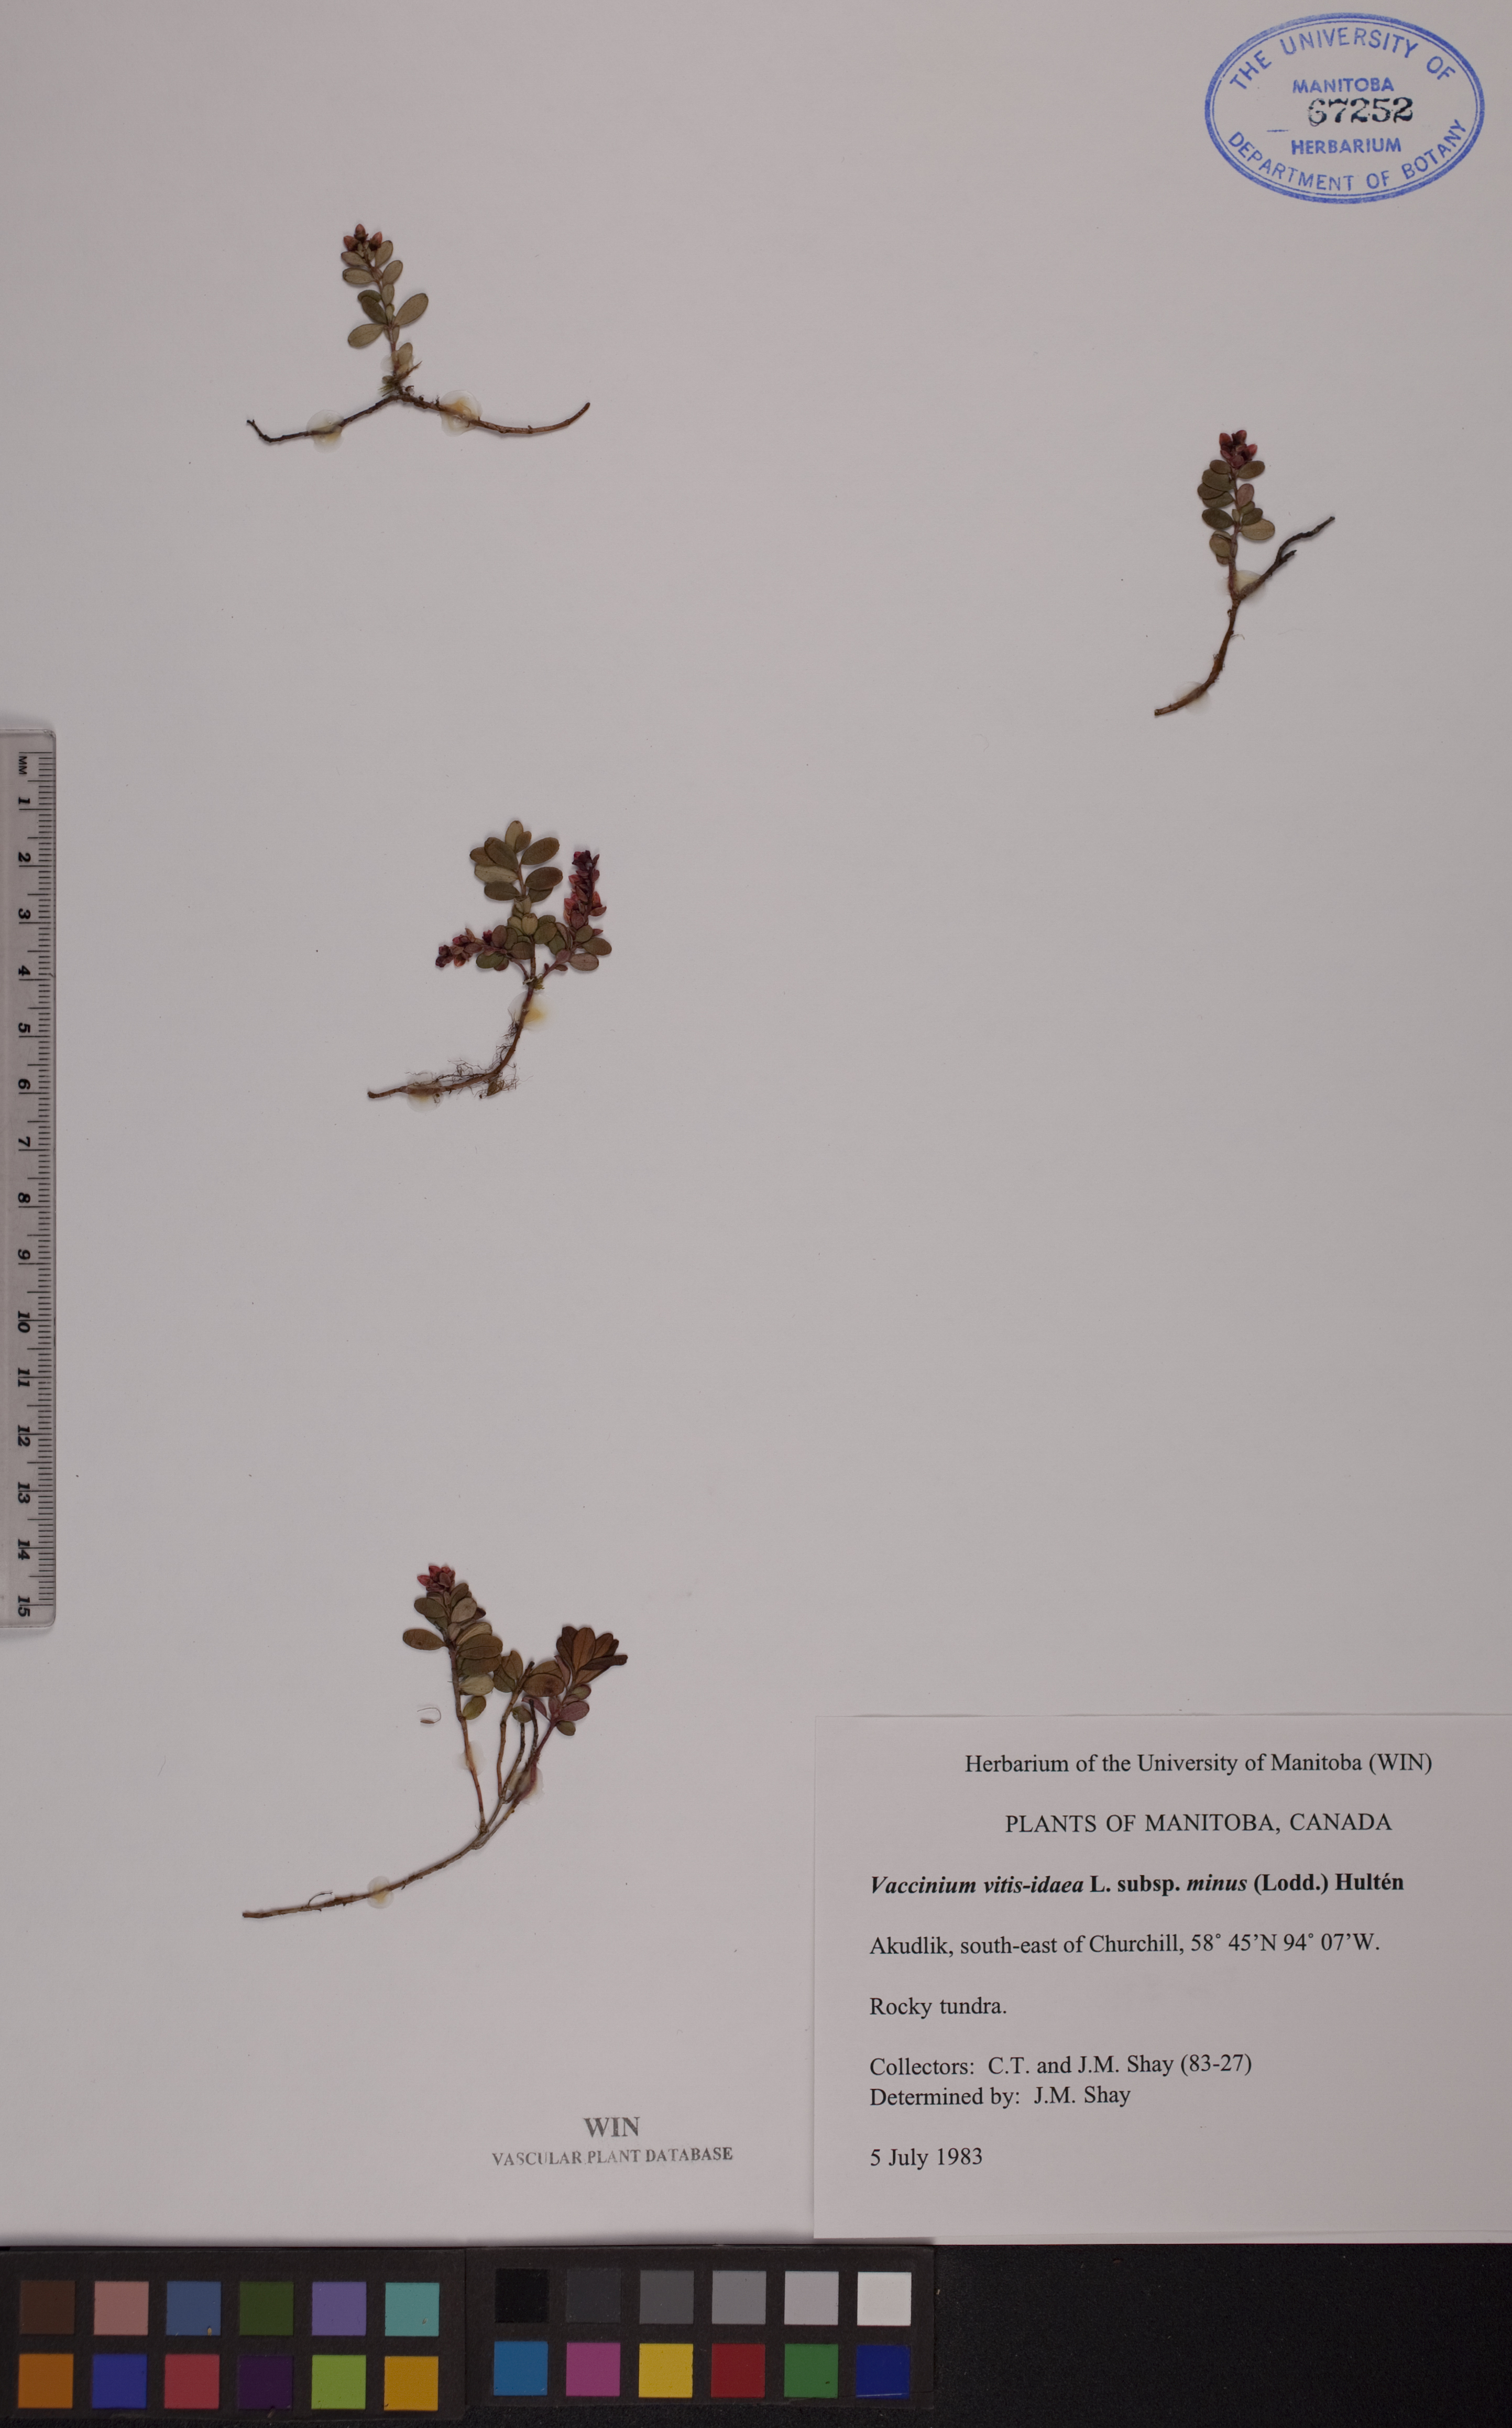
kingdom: Plantae
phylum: Tracheophyta
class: Magnoliopsida
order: Ericales
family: Ericaceae
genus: Vaccinium
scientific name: Vaccinium vitis-idaea
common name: Cowberry
